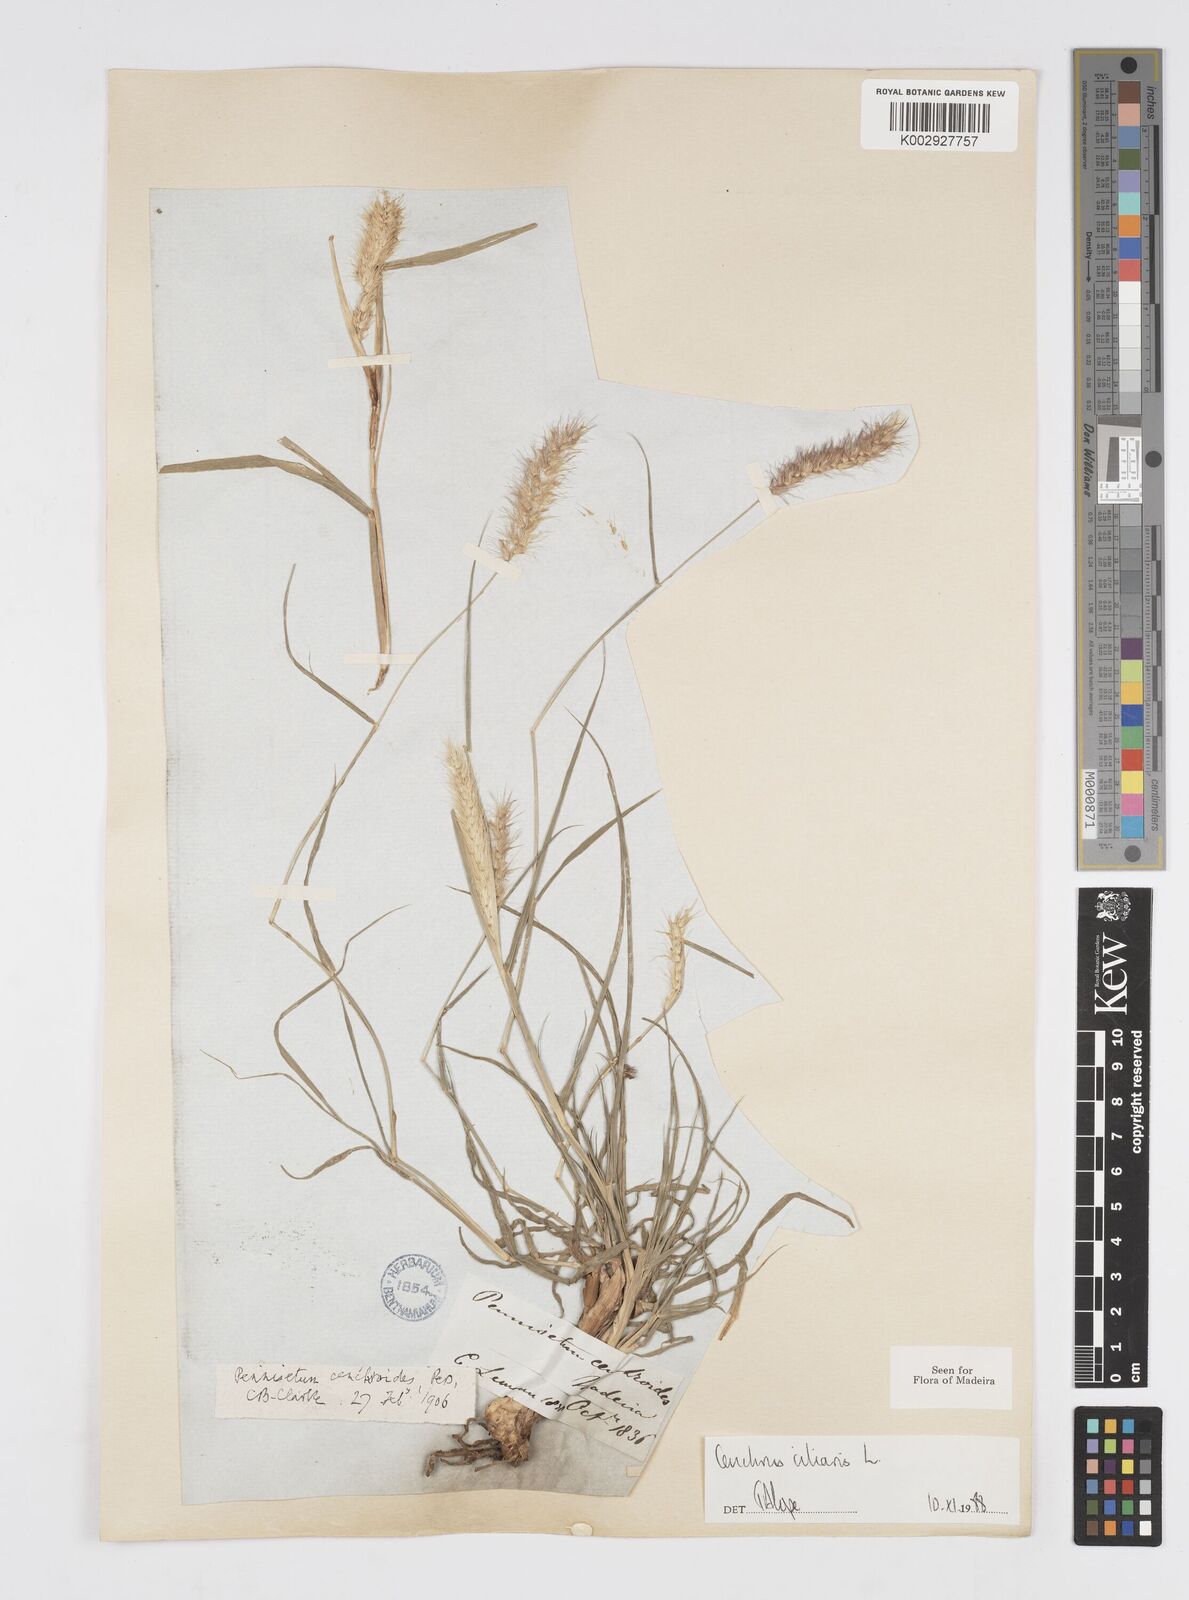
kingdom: Plantae
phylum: Tracheophyta
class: Liliopsida
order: Poales
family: Poaceae
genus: Cenchrus
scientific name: Cenchrus ciliaris
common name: Buffelgrass
